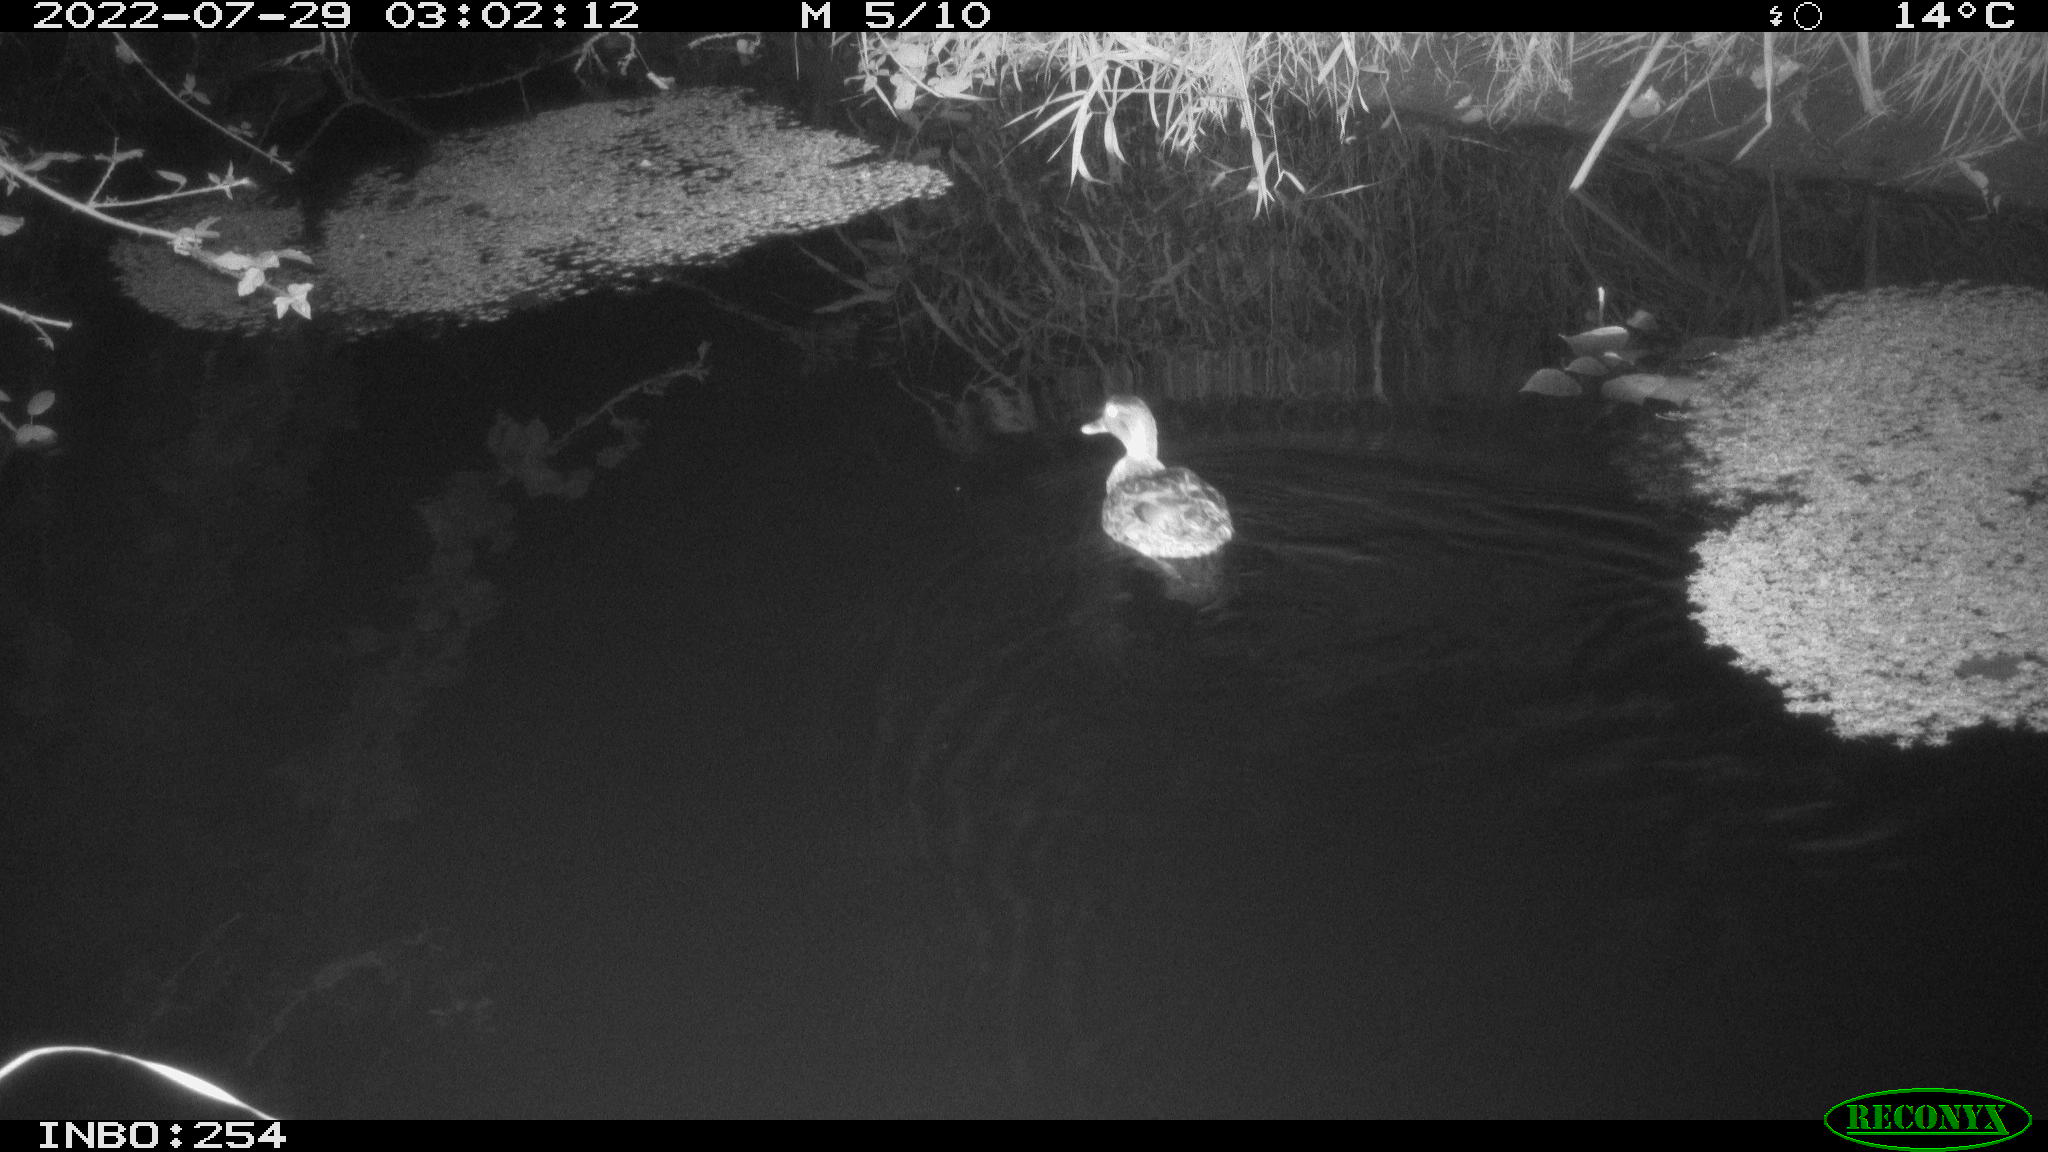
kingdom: Animalia
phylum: Chordata
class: Aves
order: Anseriformes
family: Anatidae
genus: Anas
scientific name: Anas platyrhynchos
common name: Mallard
